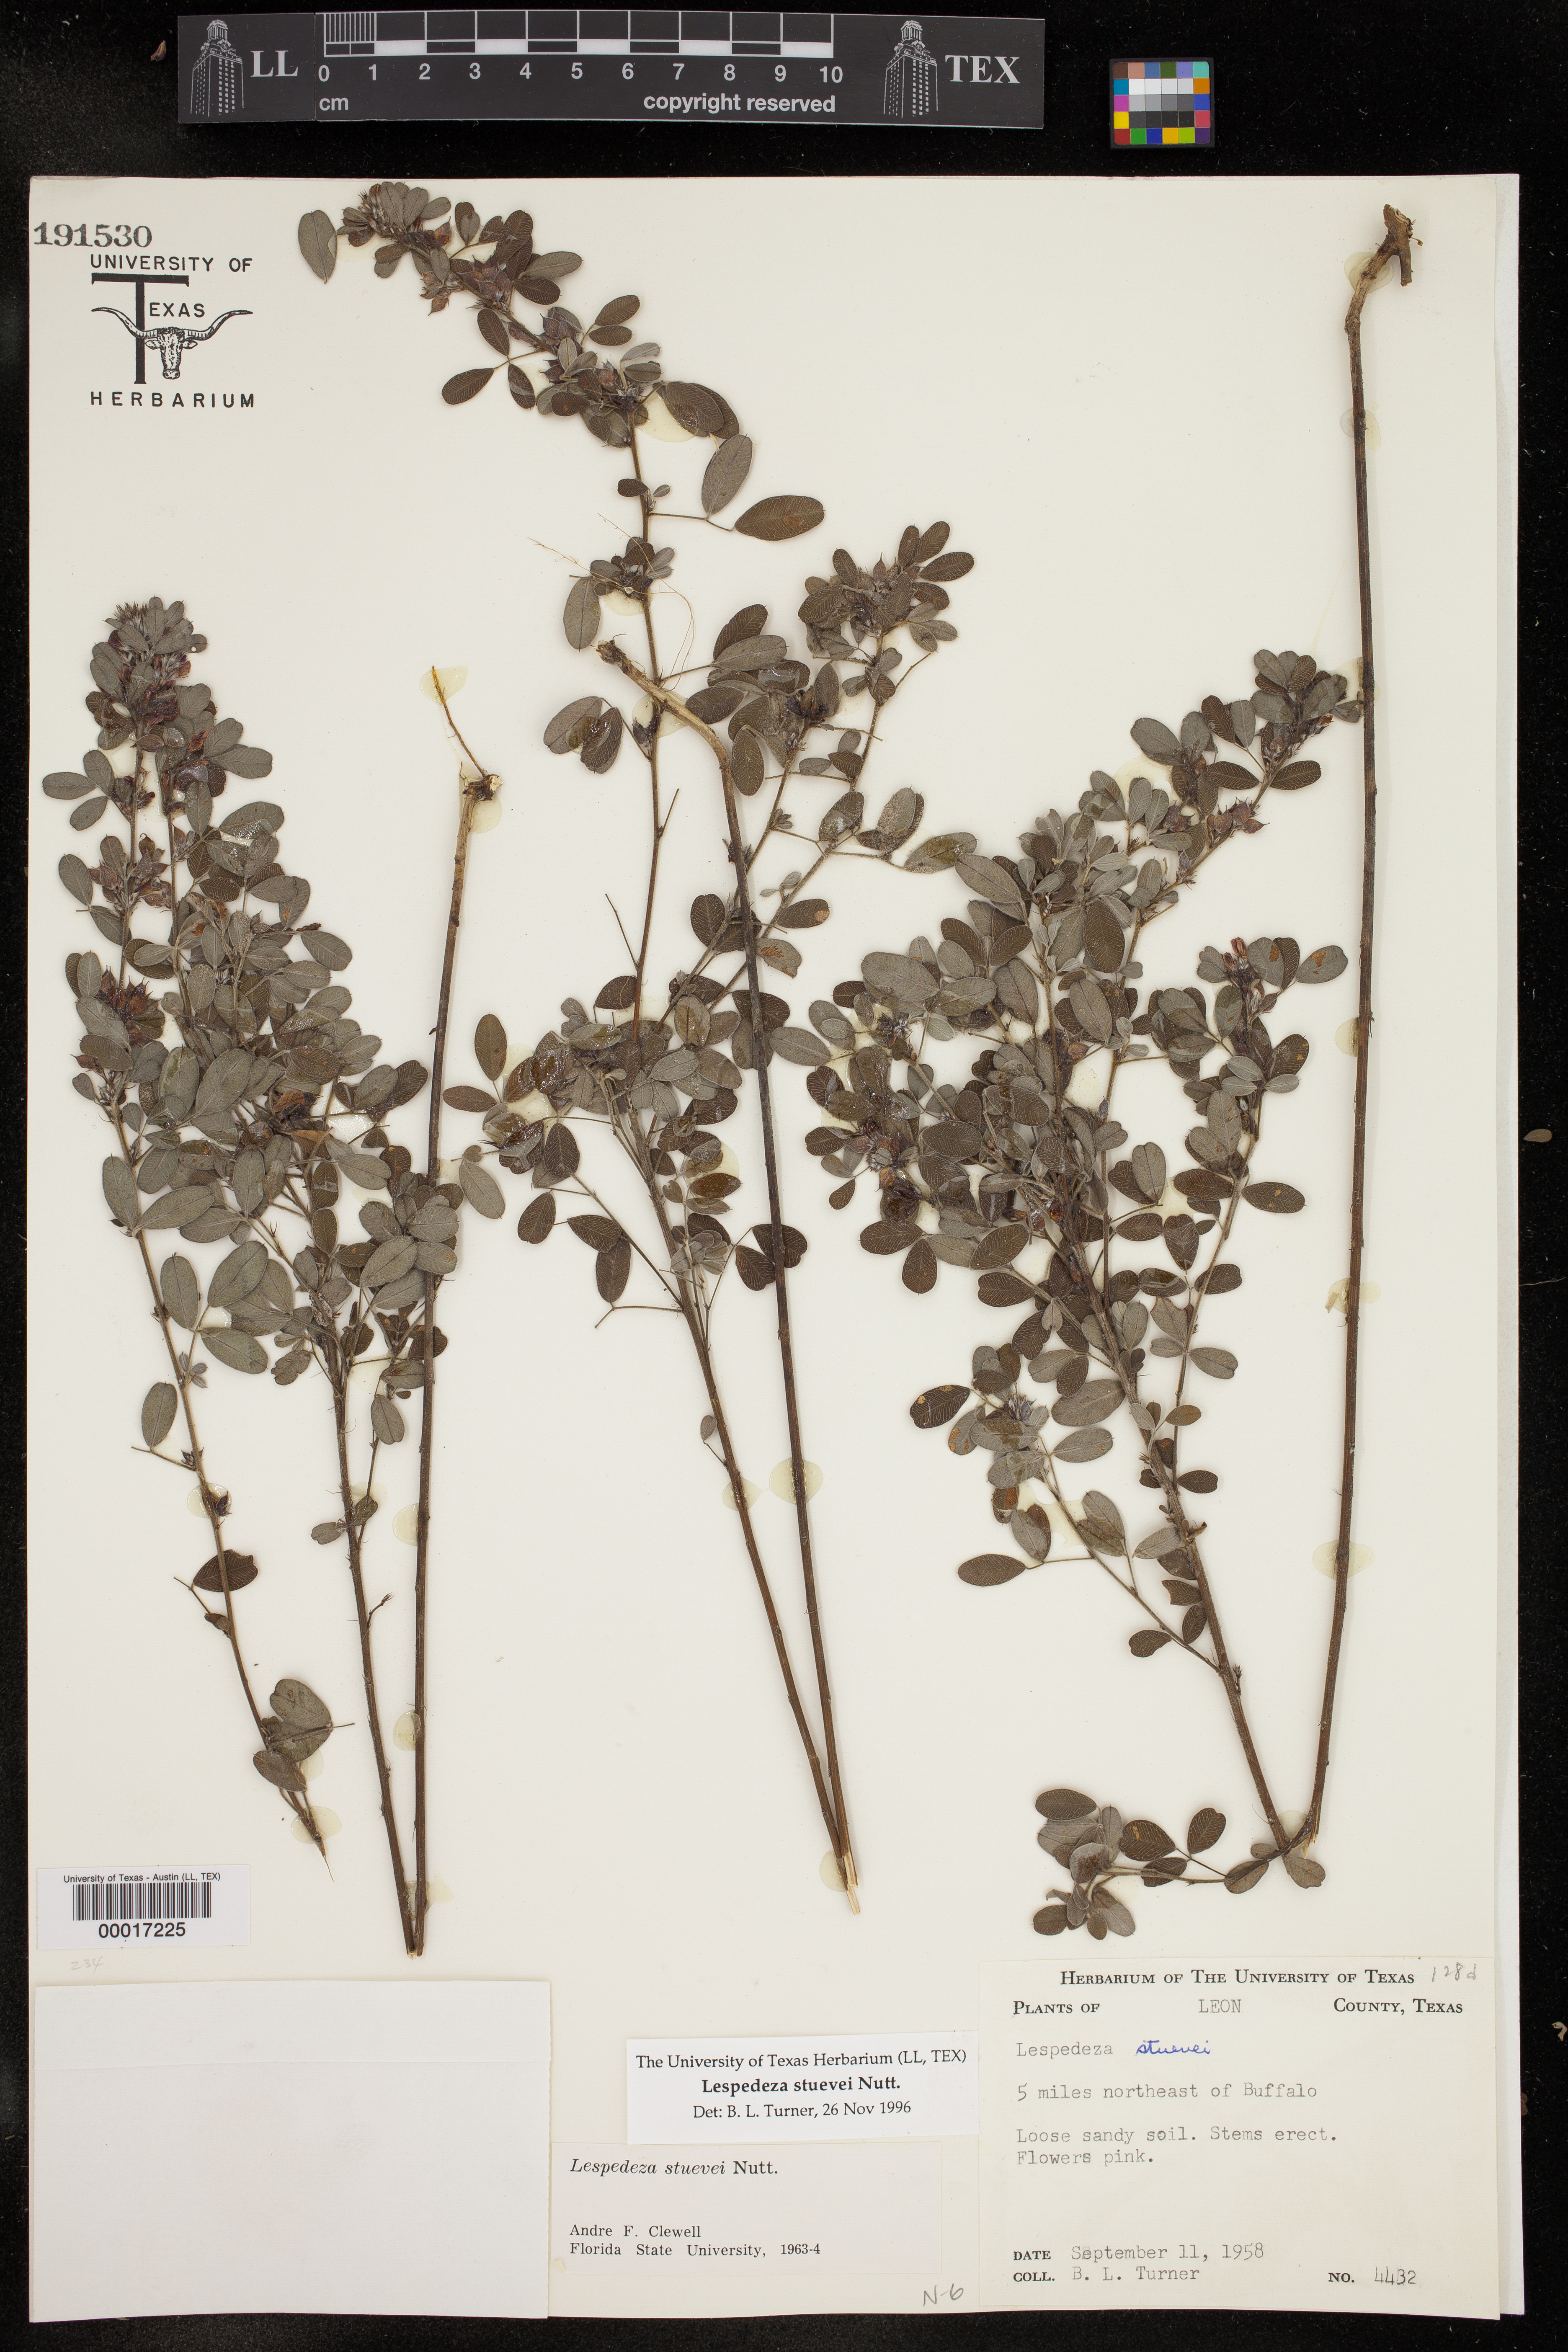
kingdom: Plantae
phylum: Tracheophyta
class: Magnoliopsida
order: Fabales
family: Fabaceae
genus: Lespedeza
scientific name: Lespedeza stuevei
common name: Tall bush-clover
